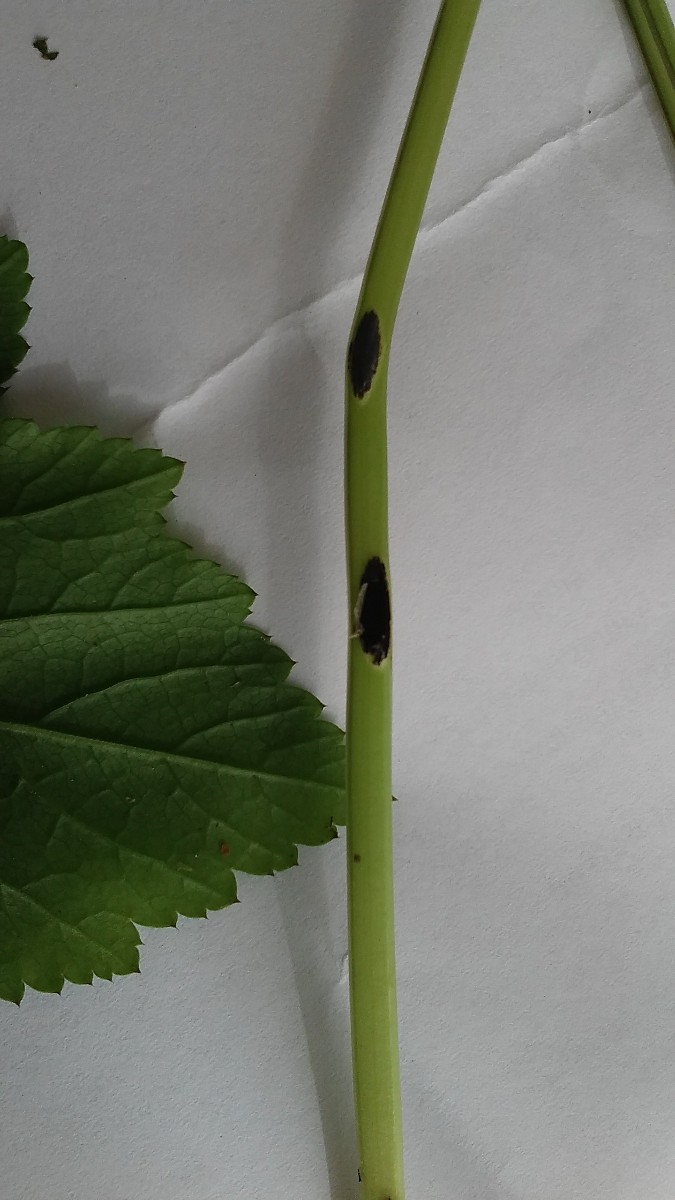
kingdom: Fungi
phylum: Basidiomycota
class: Pucciniomycetes
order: Pucciniales
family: Pucciniaceae
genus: Puccinia
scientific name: Puccinia
